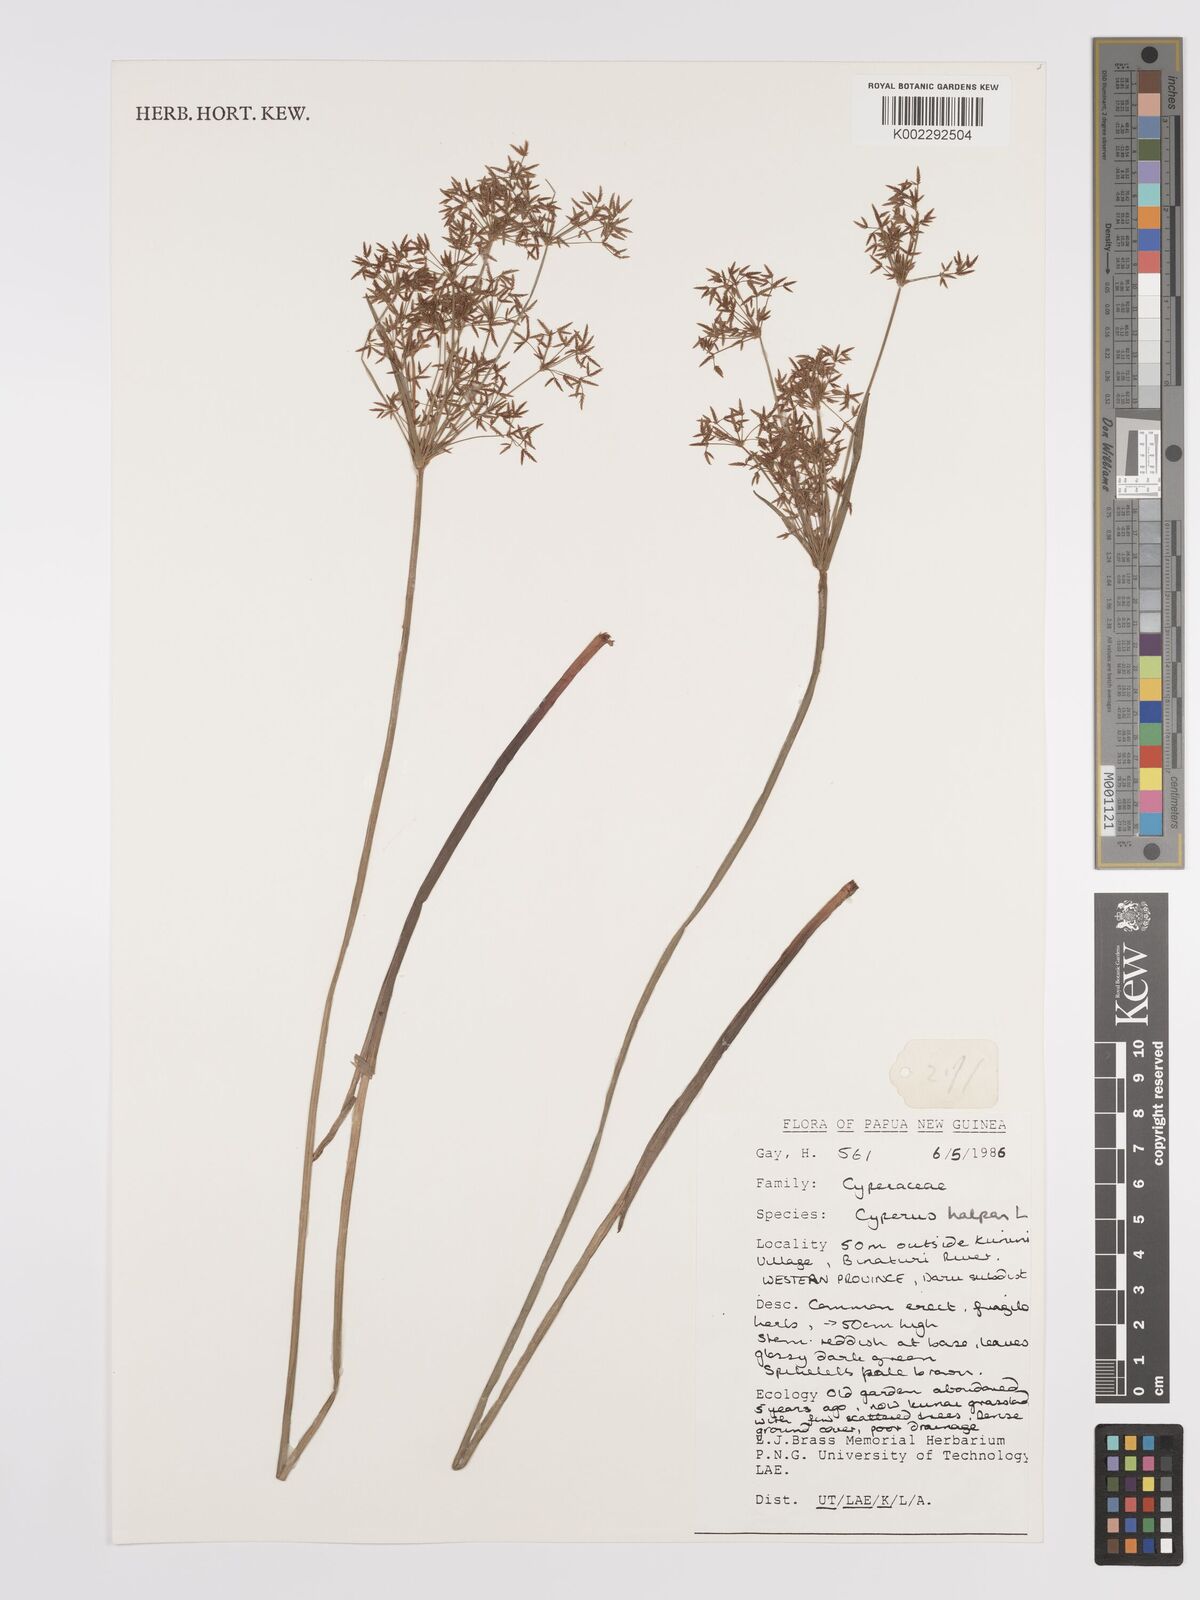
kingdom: Plantae
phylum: Tracheophyta
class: Liliopsida
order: Poales
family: Cyperaceae
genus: Cyperus
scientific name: Cyperus haspan
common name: Haspan flatsedge
